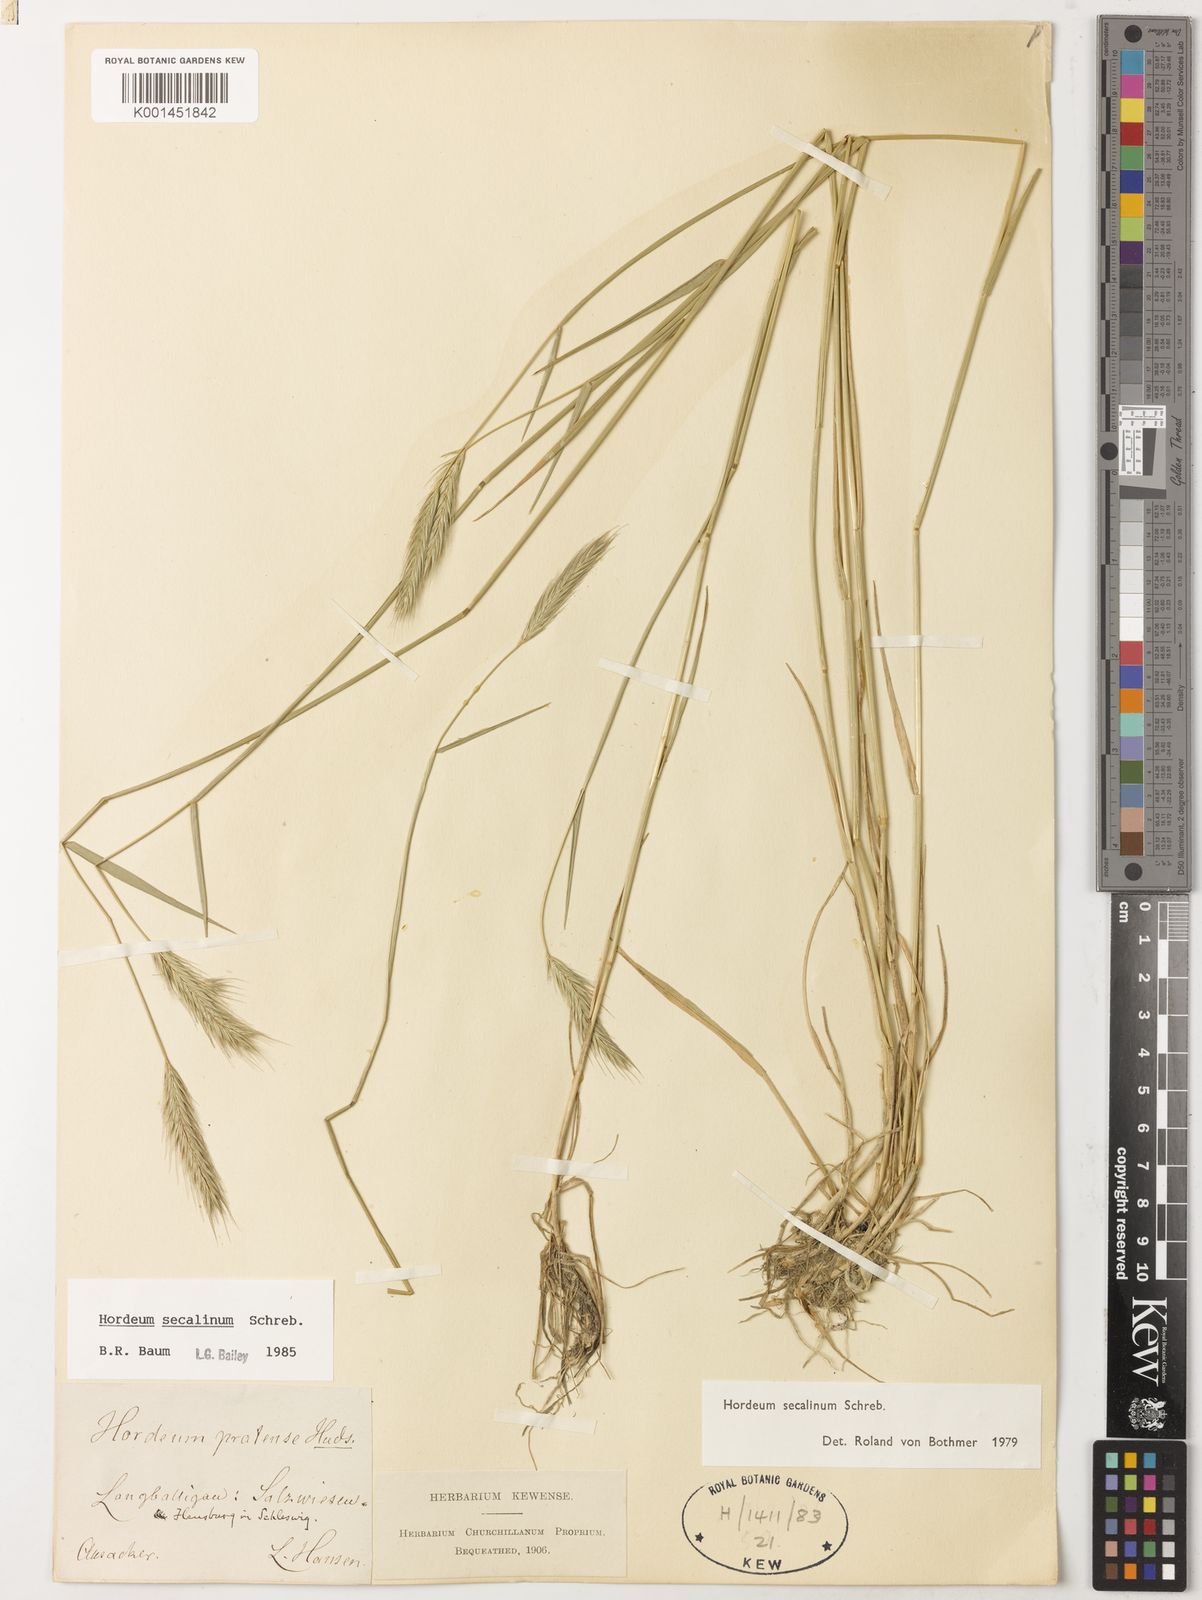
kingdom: Plantae
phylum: Tracheophyta
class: Liliopsida
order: Poales
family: Poaceae
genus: Hordeum
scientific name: Hordeum secalinum
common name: Meadow barley
